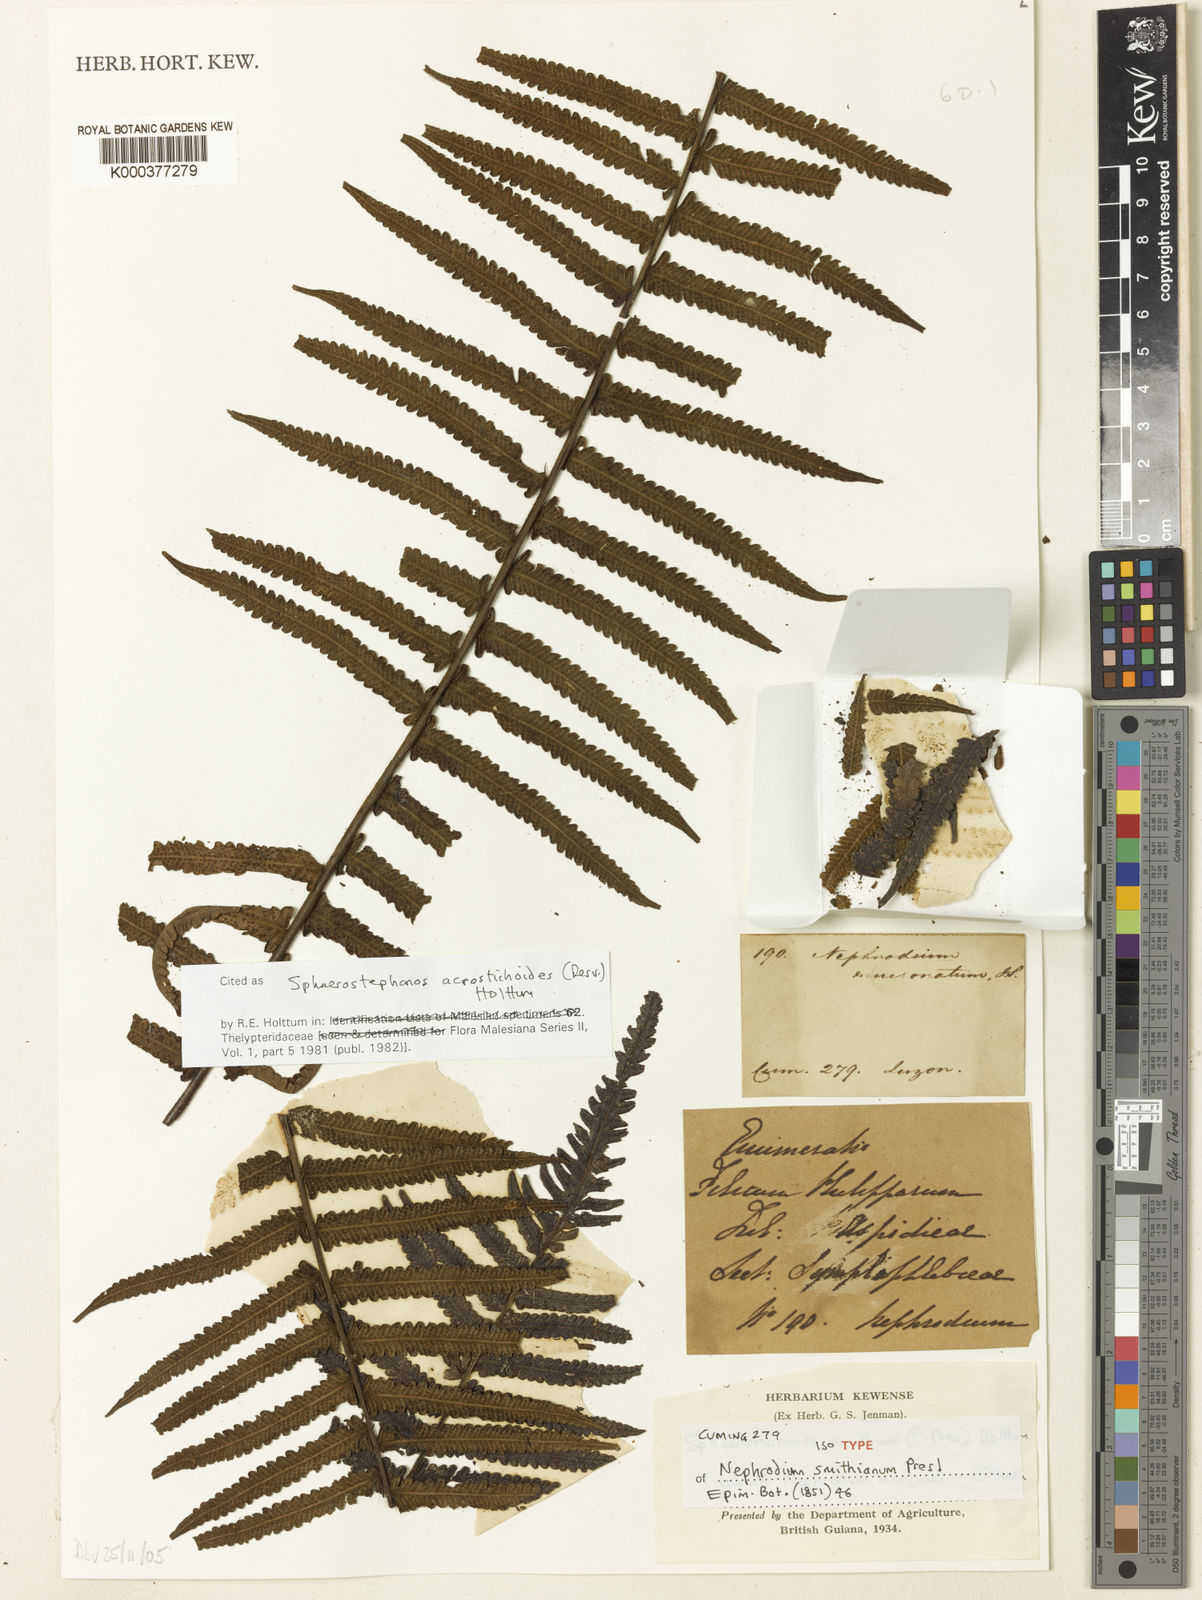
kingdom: Plantae
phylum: Tracheophyta
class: Polypodiopsida
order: Polypodiales
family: Thelypteridaceae
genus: Sphaerostephanos
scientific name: Sphaerostephanos acrostichoides
